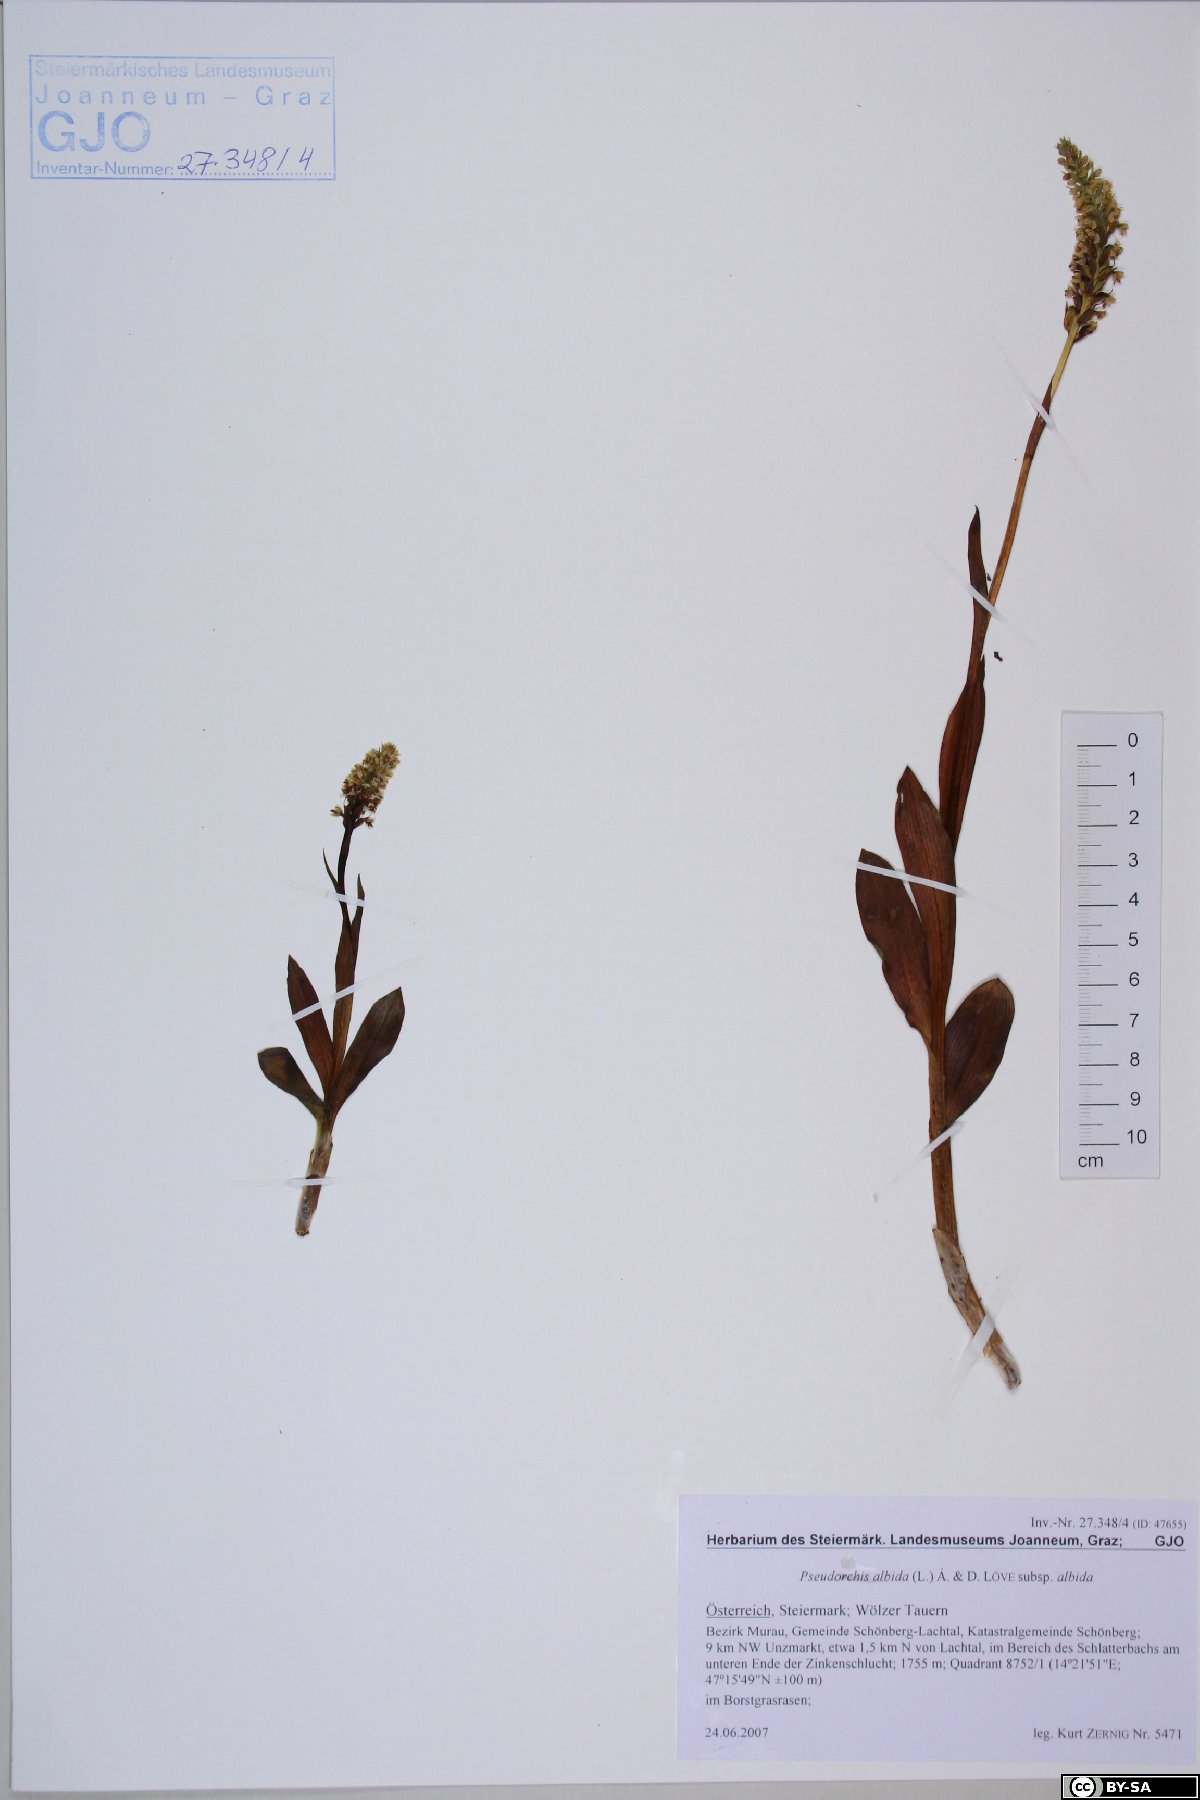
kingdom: Plantae
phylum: Tracheophyta
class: Liliopsida
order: Asparagales
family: Orchidaceae
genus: Pseudorchis
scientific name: Pseudorchis albida
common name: Small-white orchid
